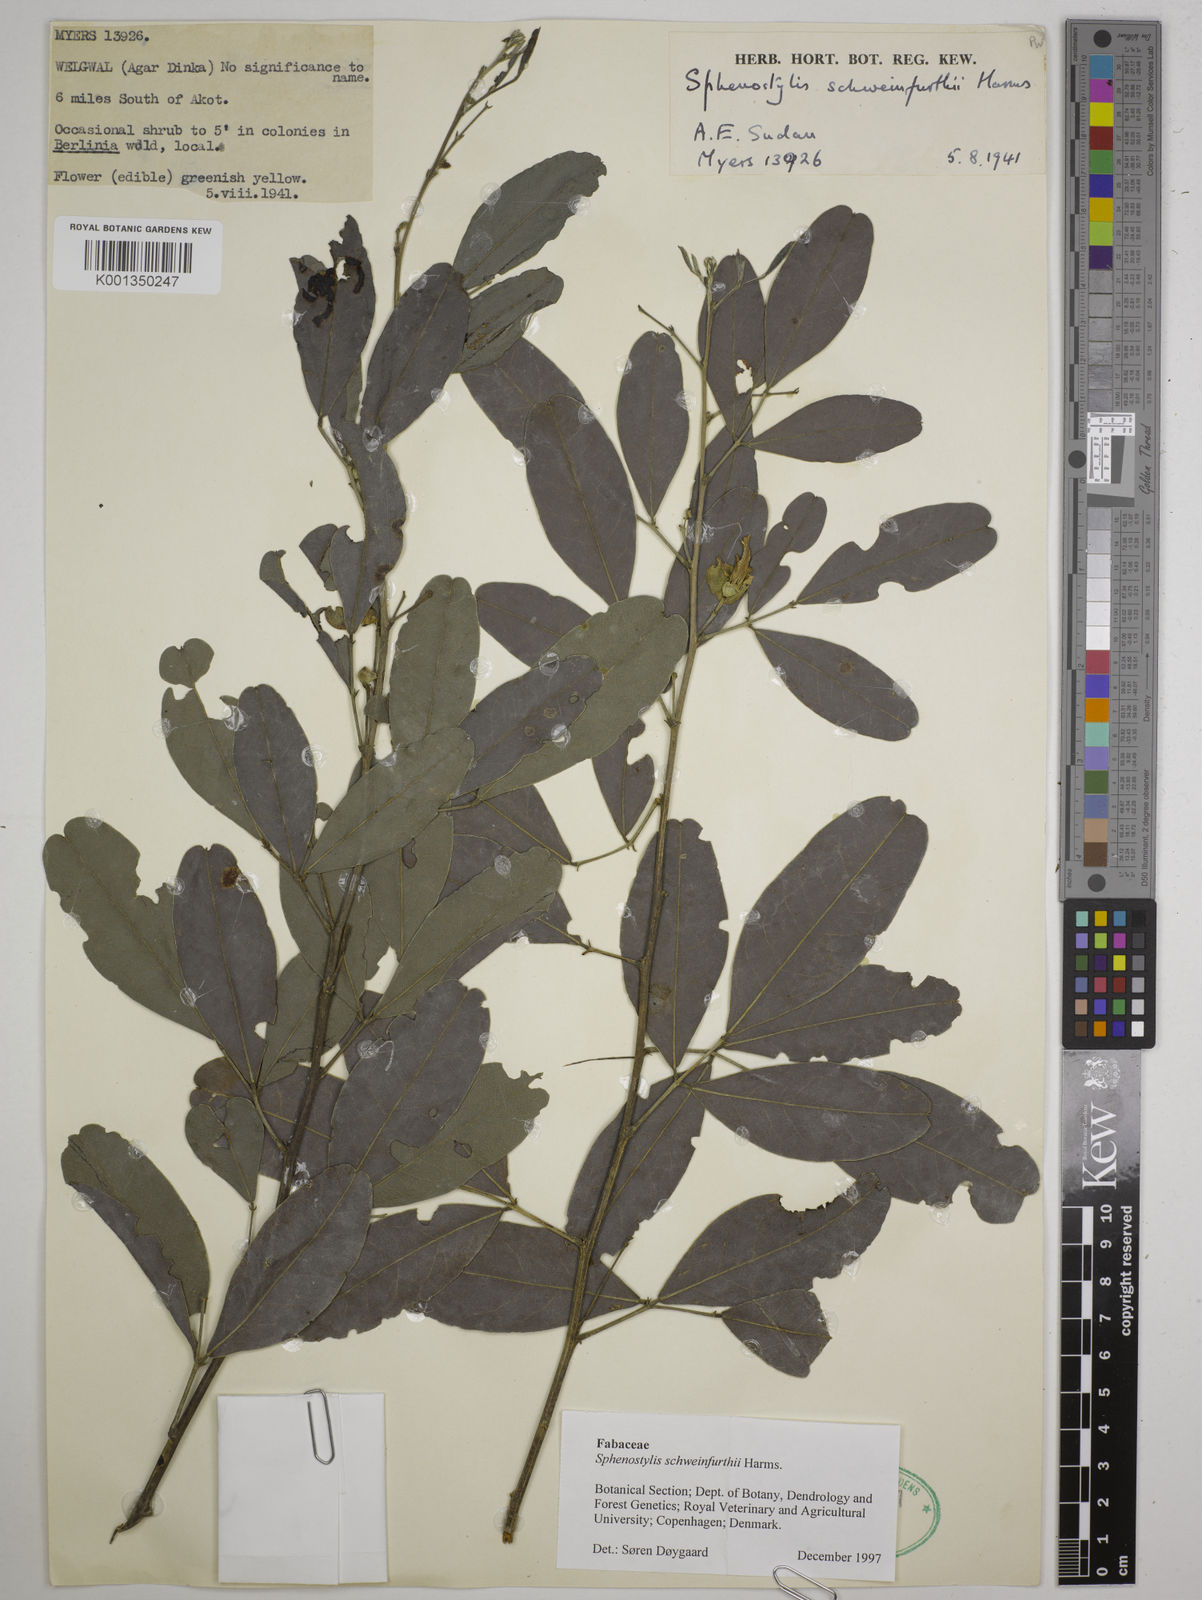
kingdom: Plantae
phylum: Tracheophyta
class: Magnoliopsida
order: Fabales
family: Fabaceae
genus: Sphenostylis
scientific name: Sphenostylis schweinfurthii
